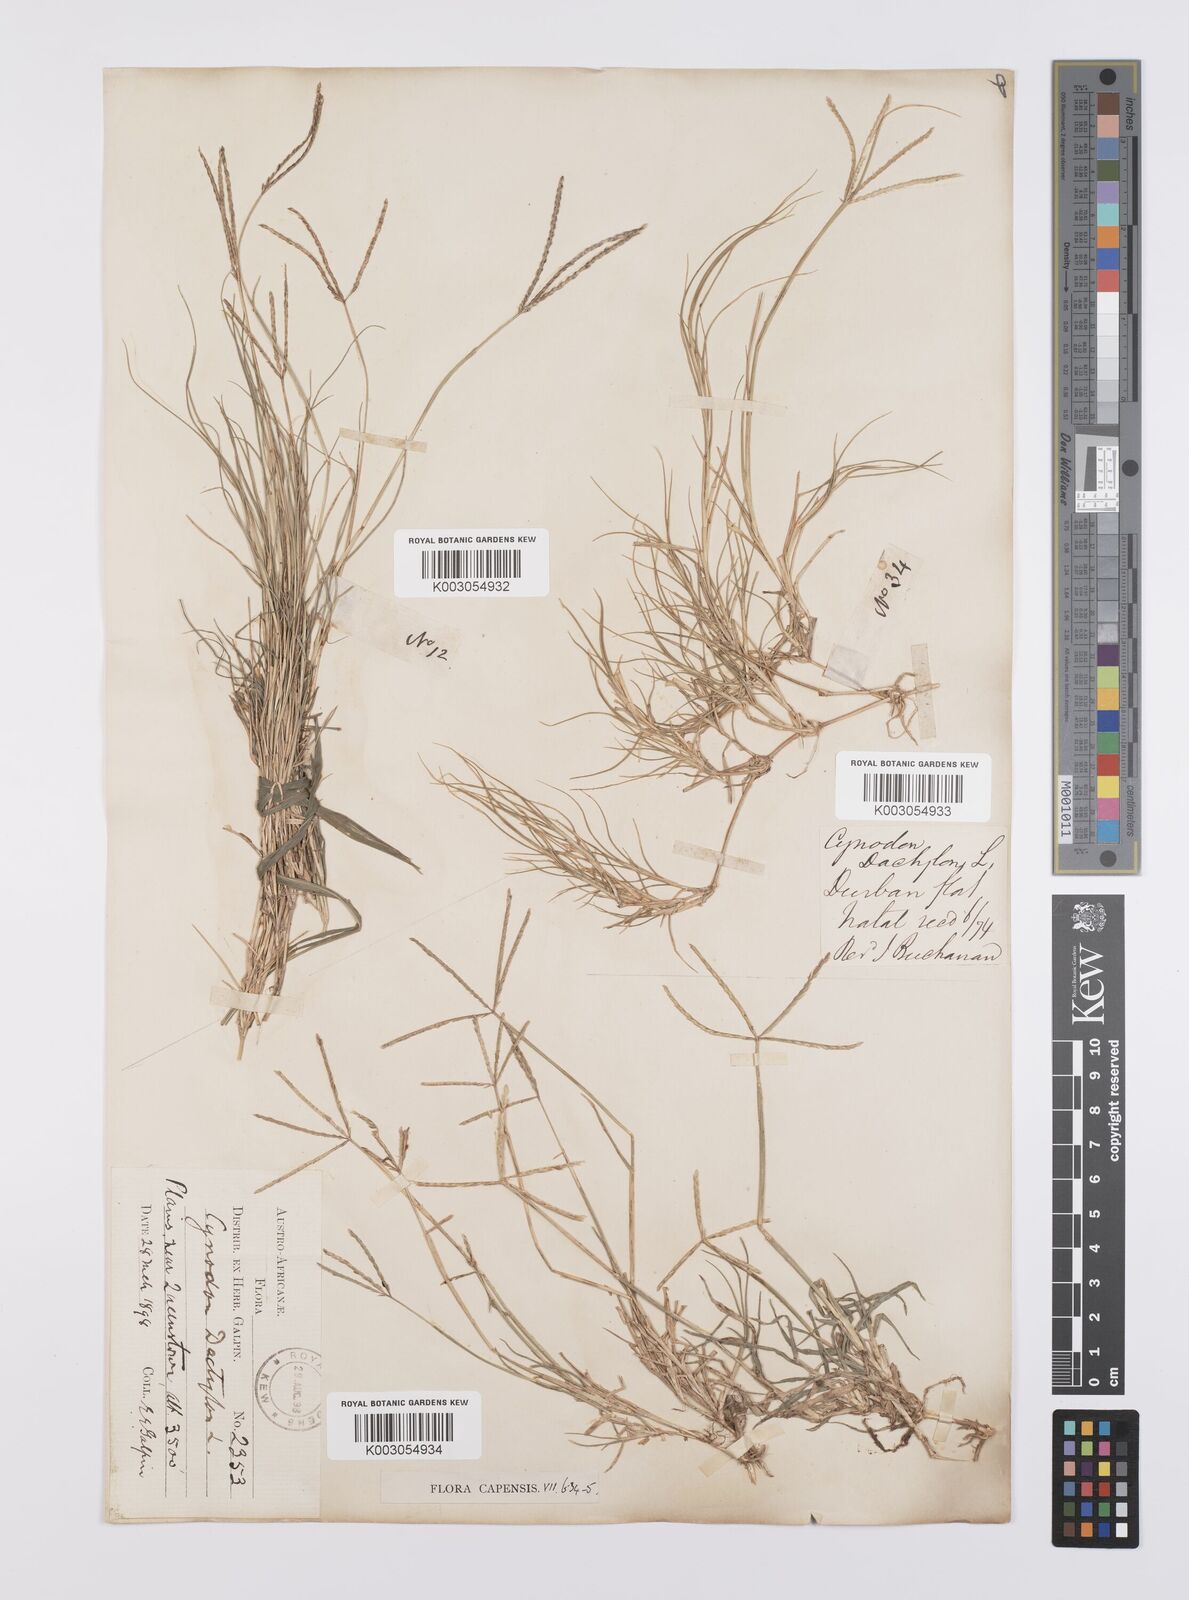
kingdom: Plantae
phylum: Tracheophyta
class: Liliopsida
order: Poales
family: Poaceae
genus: Cynodon
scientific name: Cynodon dactylon
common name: Bermuda grass
